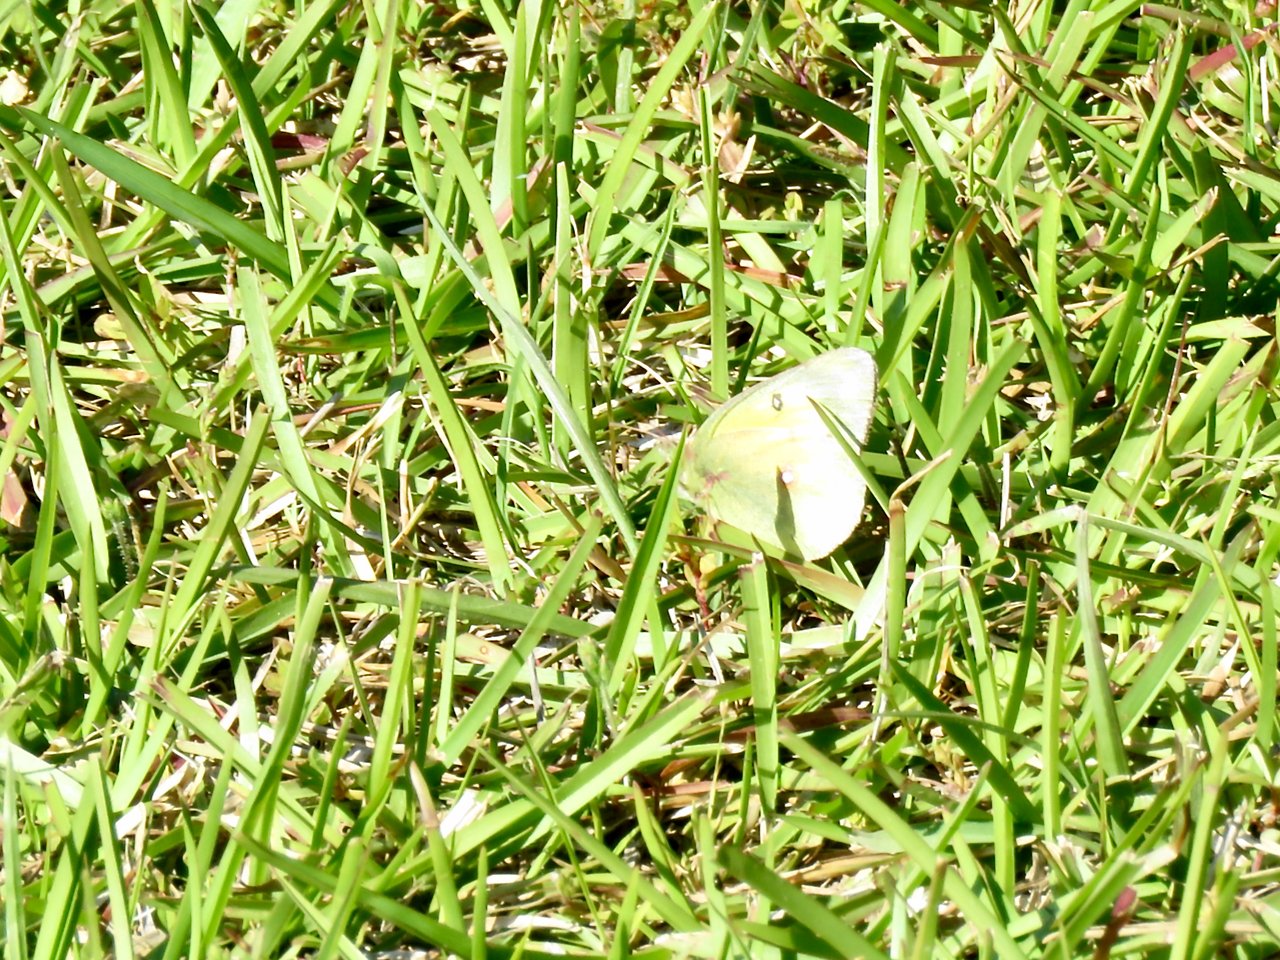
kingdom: Animalia
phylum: Arthropoda
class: Insecta
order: Lepidoptera
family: Pieridae
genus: Colias
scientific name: Colias philodice
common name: Clouded Sulphur
